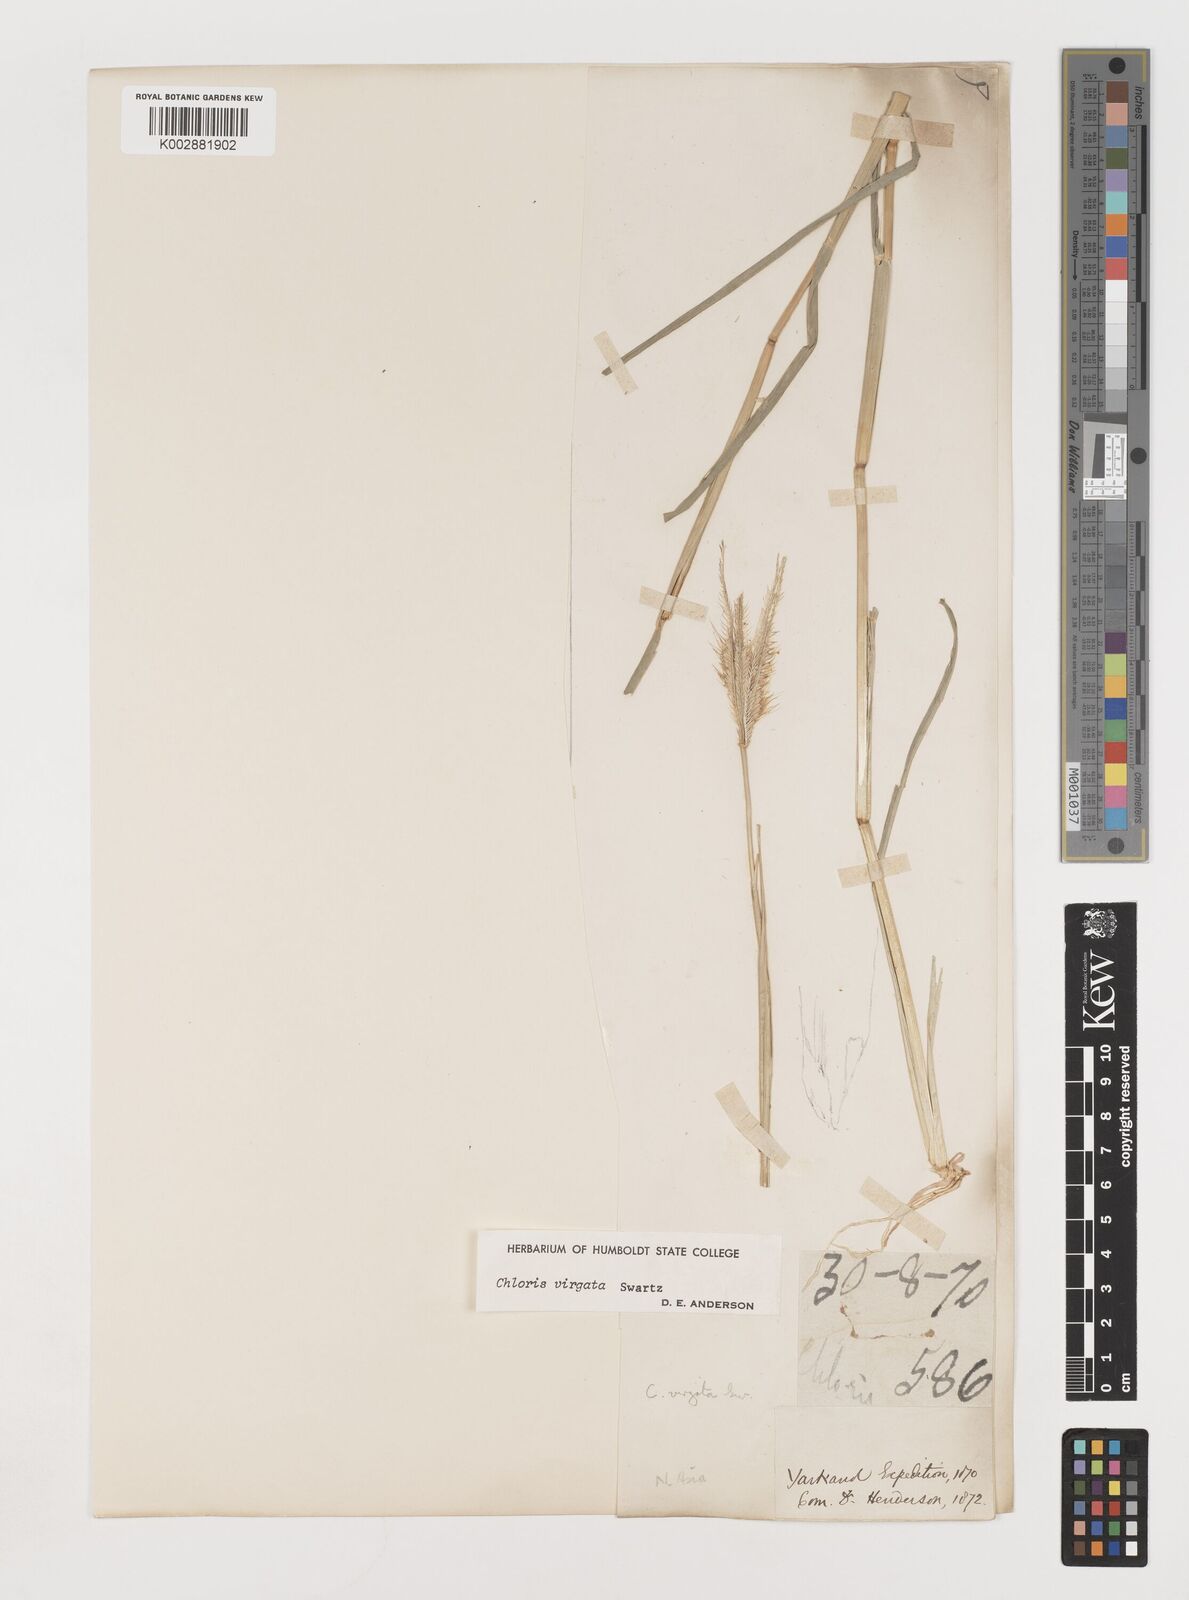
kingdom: Plantae
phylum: Tracheophyta
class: Liliopsida
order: Poales
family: Poaceae
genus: Chloris
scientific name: Chloris virgata
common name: Feathery rhodes-grass
